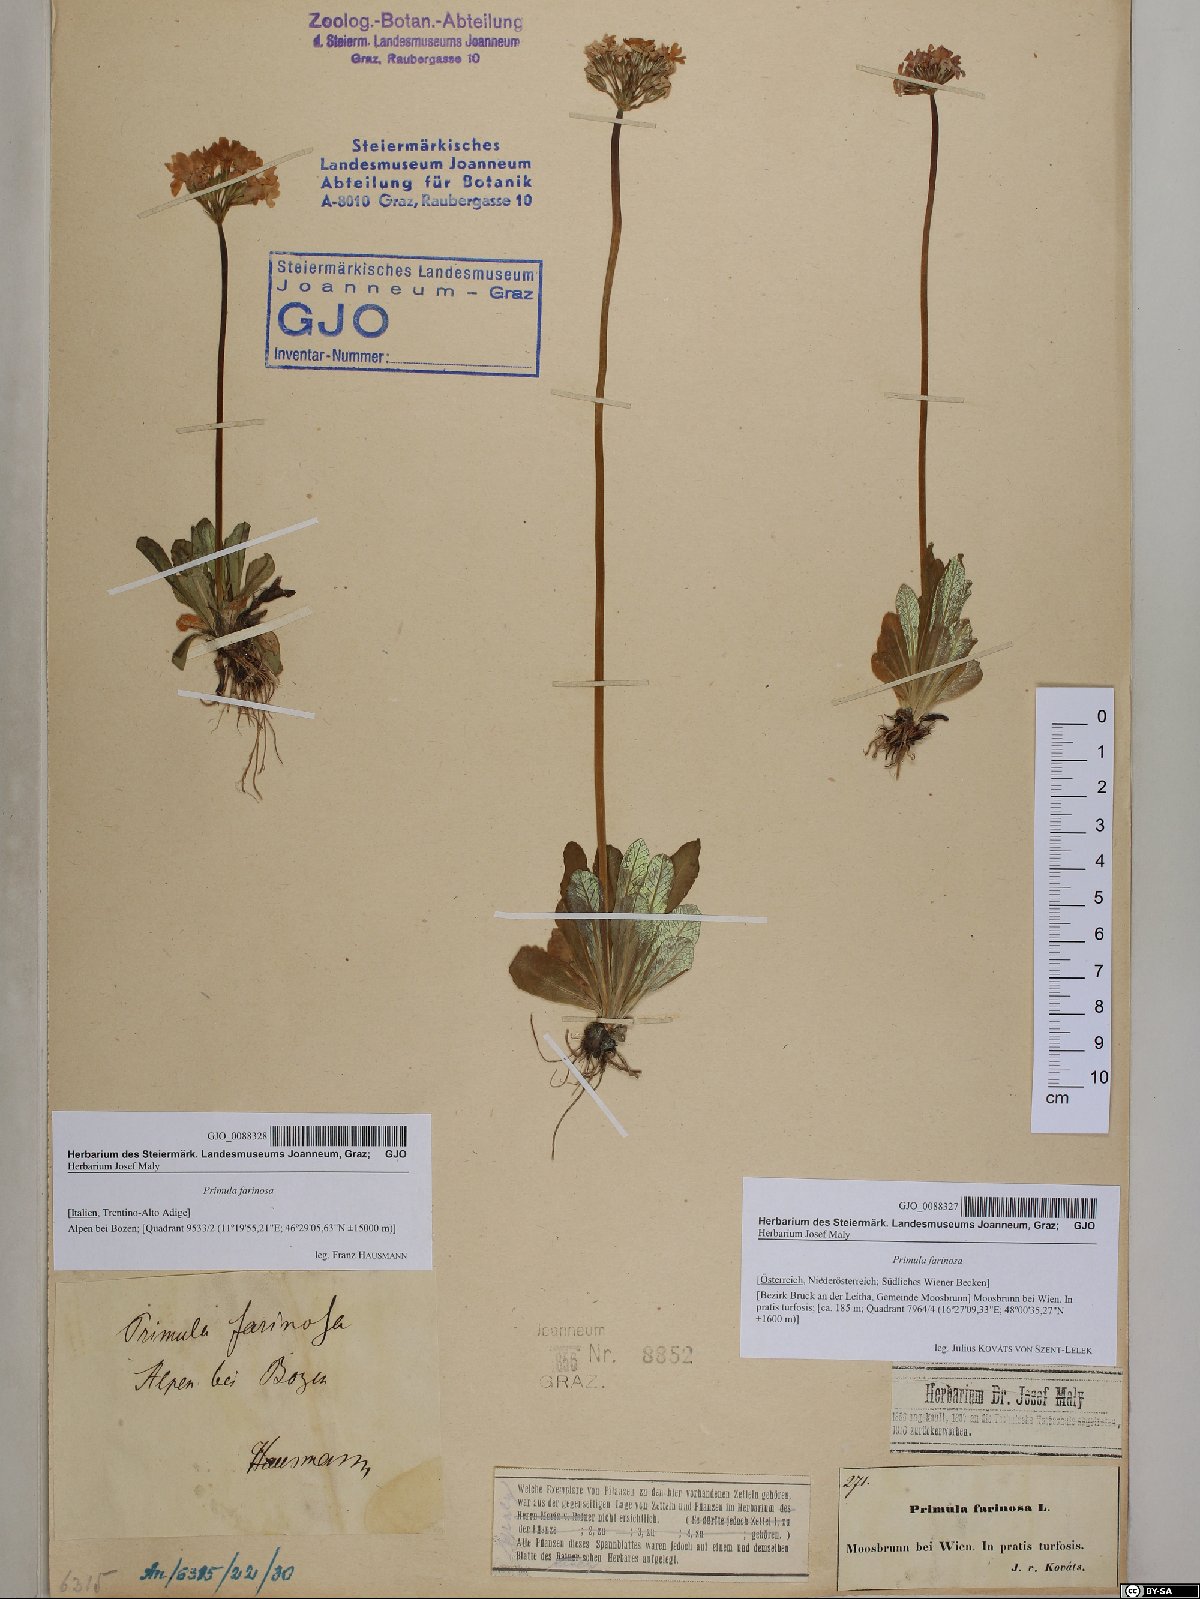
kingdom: Plantae
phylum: Tracheophyta
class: Magnoliopsida
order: Ericales
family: Primulaceae
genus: Primula
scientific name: Primula farinosa
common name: Bird's-eye primrose
